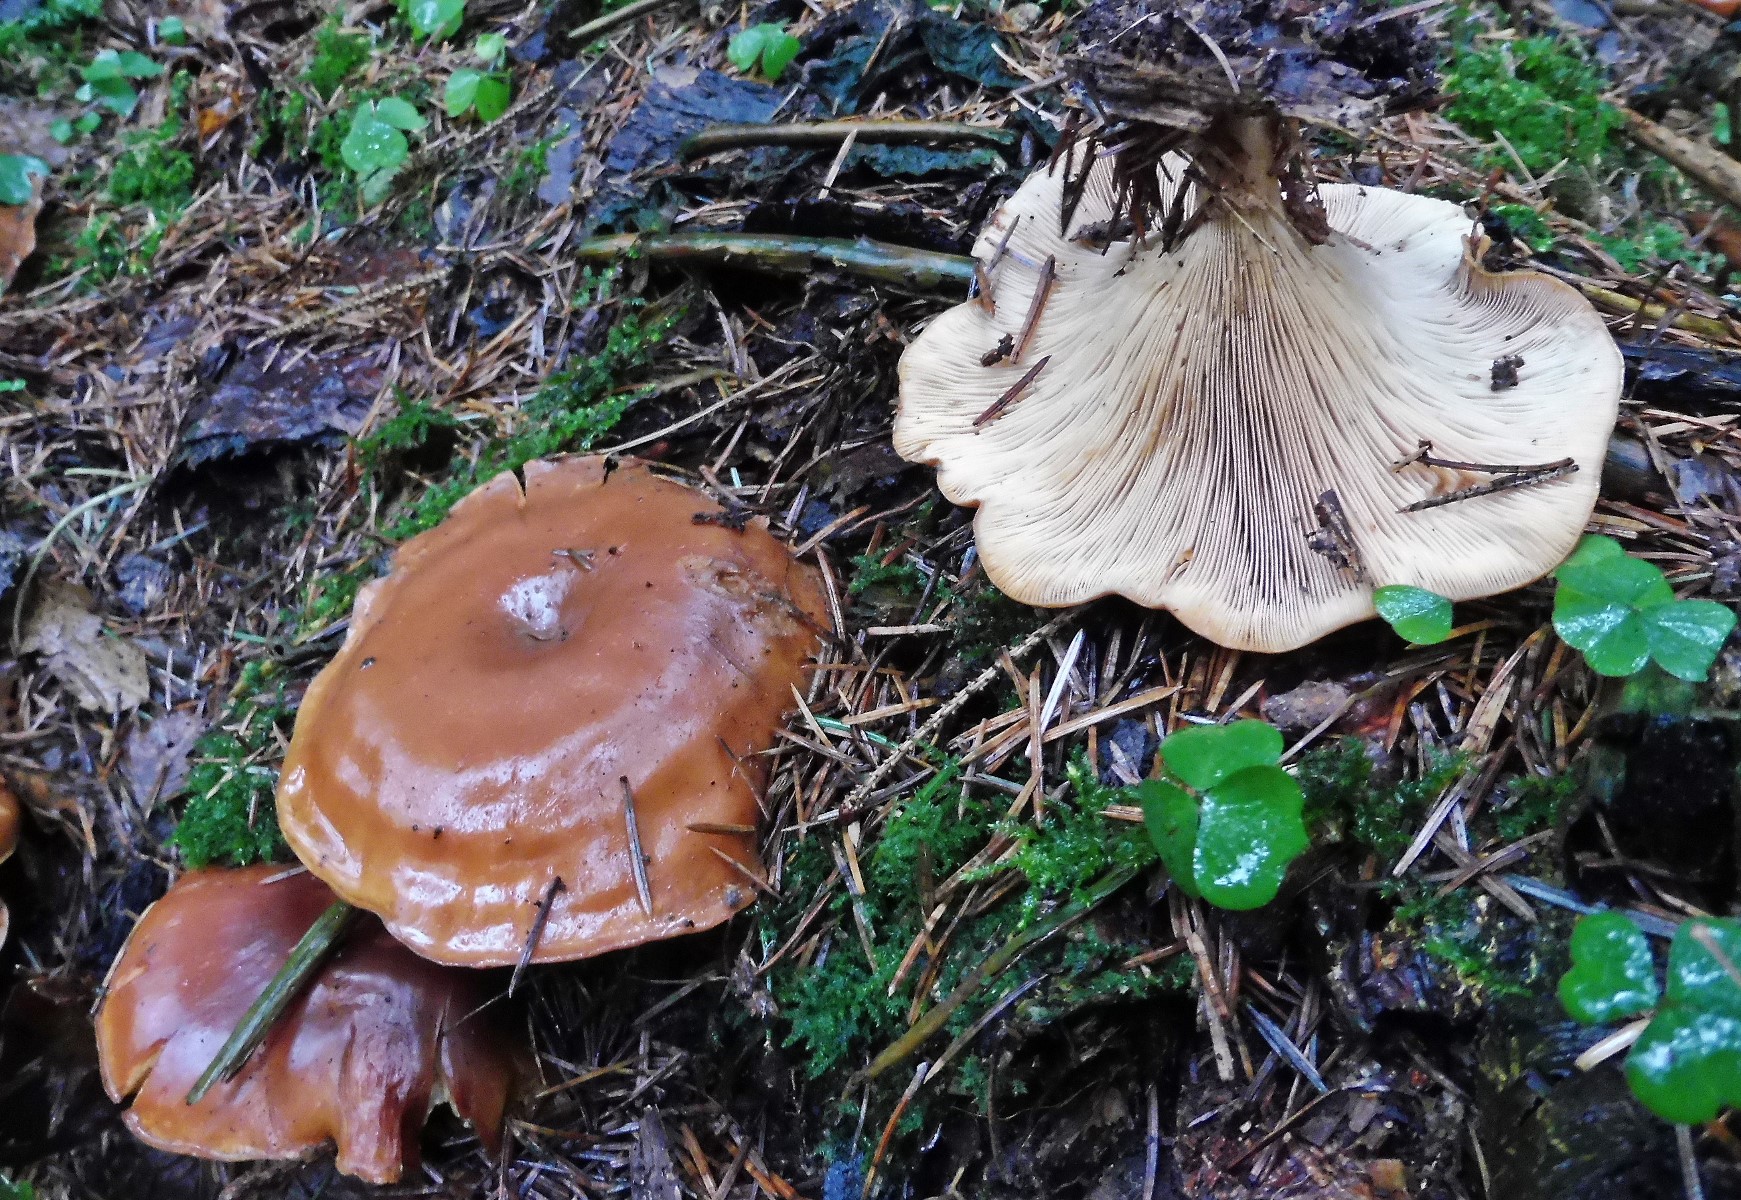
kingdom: Fungi
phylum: Basidiomycota
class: Agaricomycetes
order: Agaricales
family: Tricholomataceae
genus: Paralepista
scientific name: Paralepista flaccida
